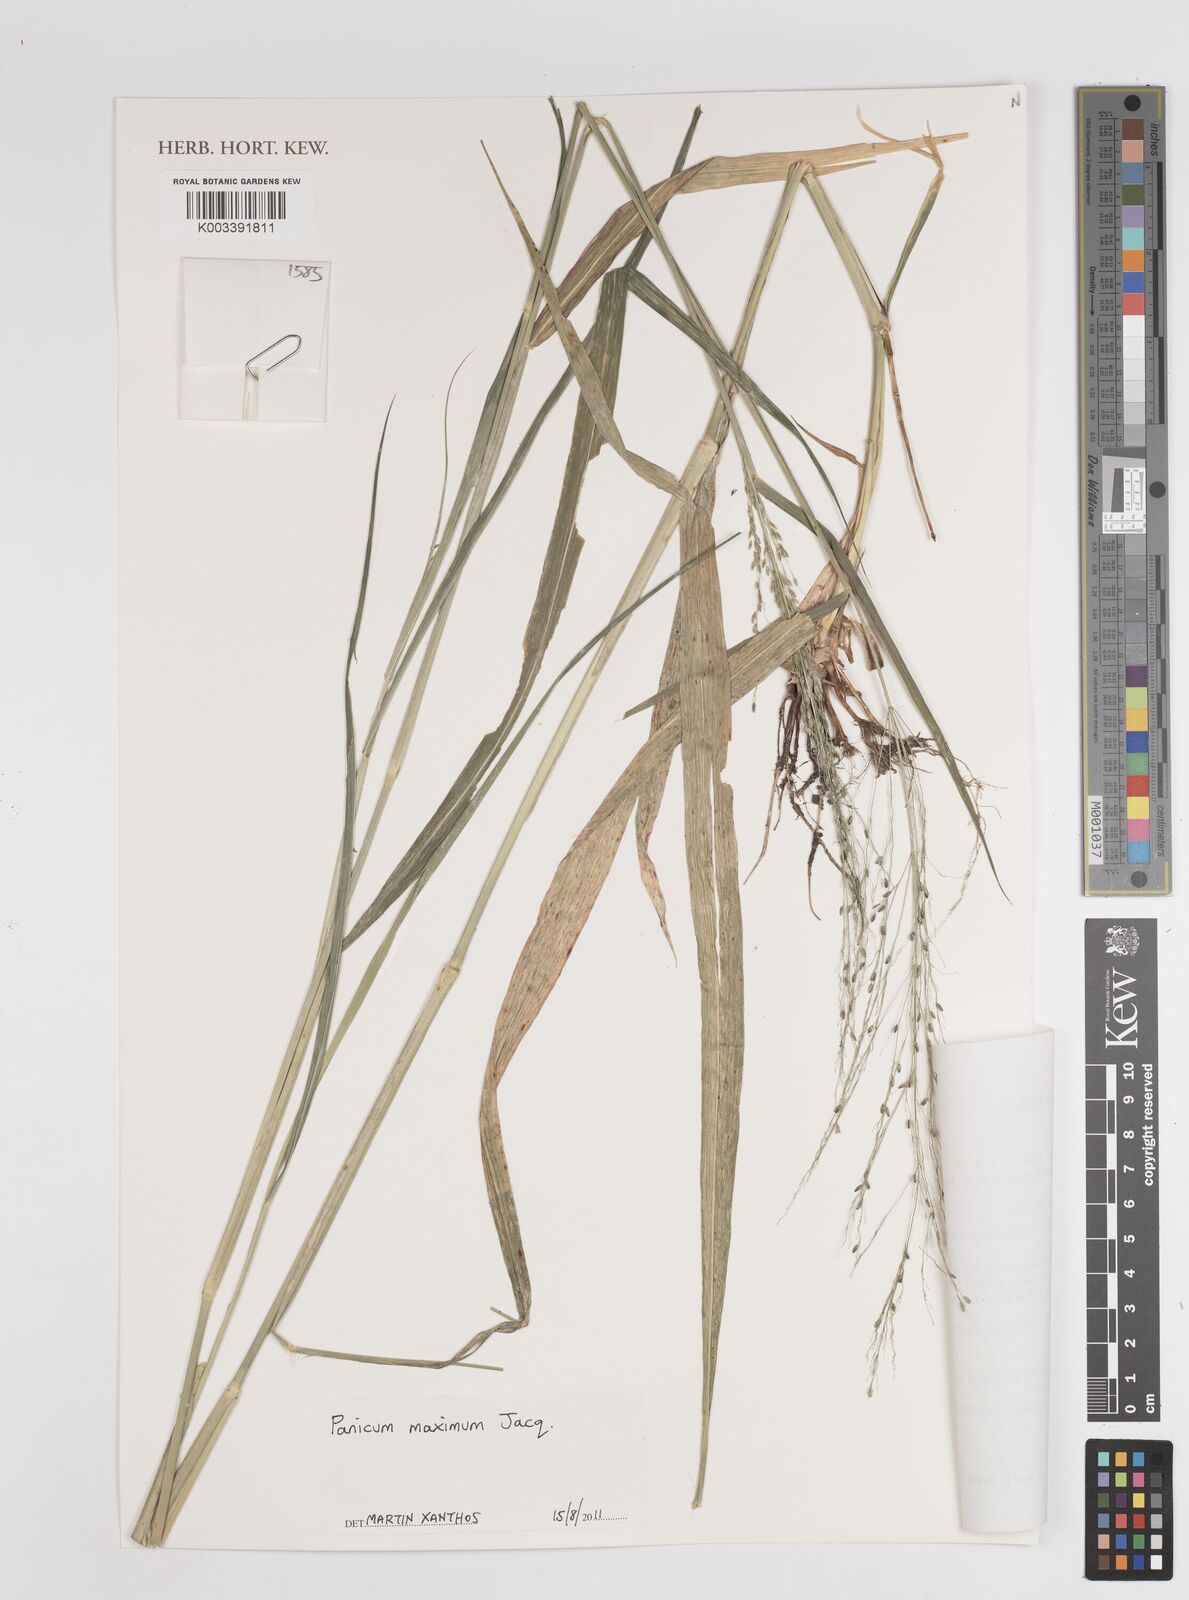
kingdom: Plantae
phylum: Tracheophyta
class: Liliopsida
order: Poales
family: Poaceae
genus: Megathyrsus
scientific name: Megathyrsus maximus
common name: Guineagrass
